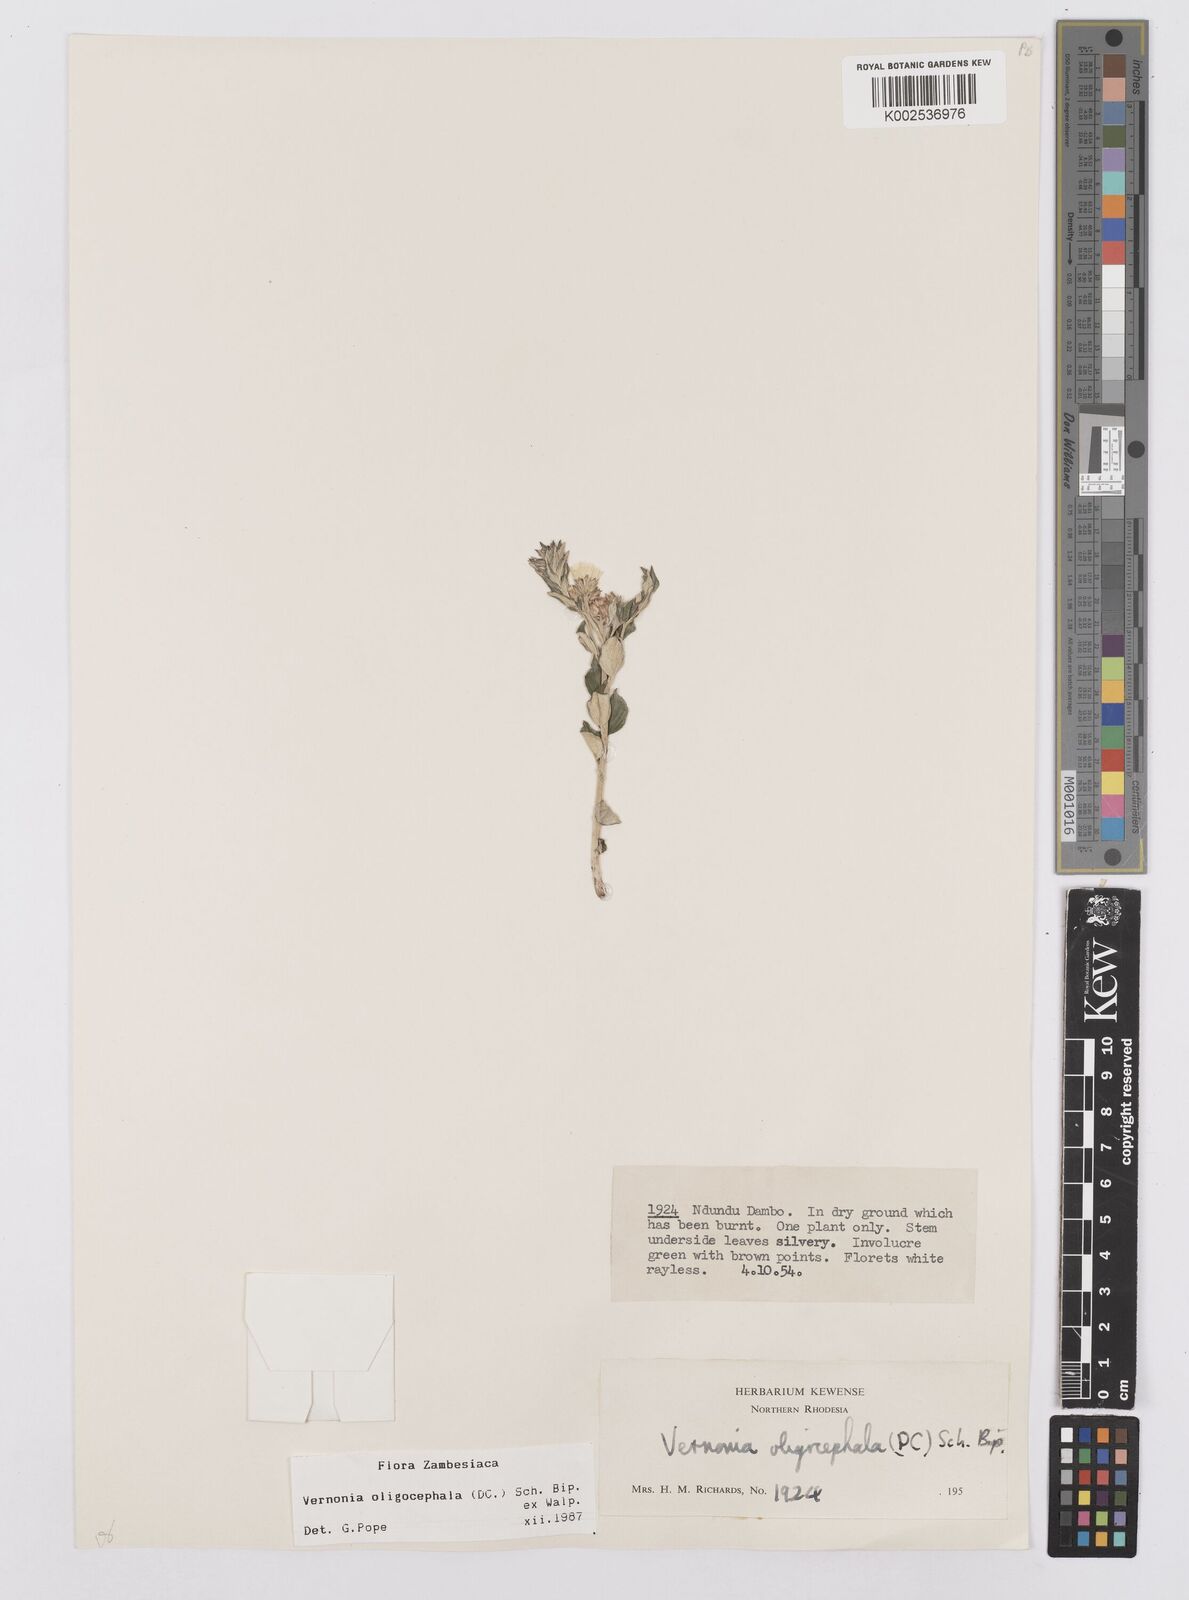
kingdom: Plantae
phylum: Tracheophyta
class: Magnoliopsida
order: Asterales
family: Asteraceae
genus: Hilliardiella
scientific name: Hilliardiella oligocephala
